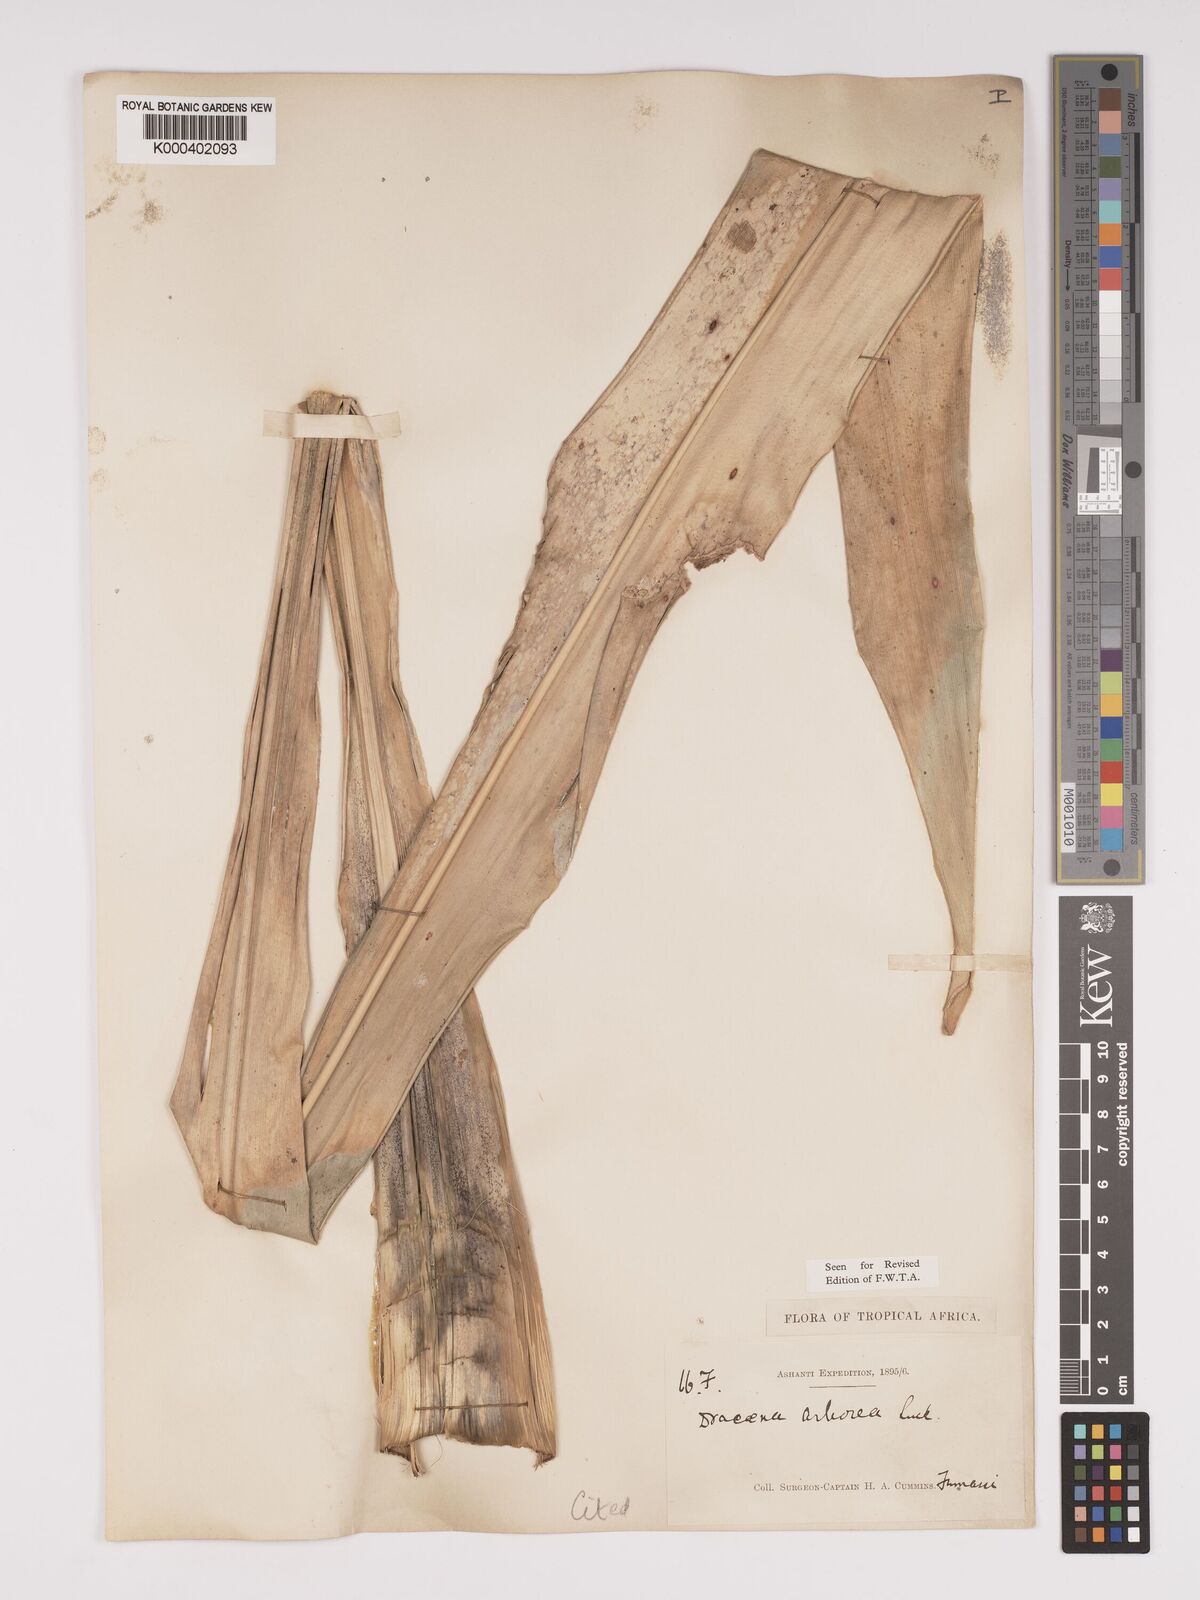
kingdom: Plantae
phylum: Tracheophyta
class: Liliopsida
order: Asparagales
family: Asparagaceae
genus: Dracaena
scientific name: Dracaena arborea
